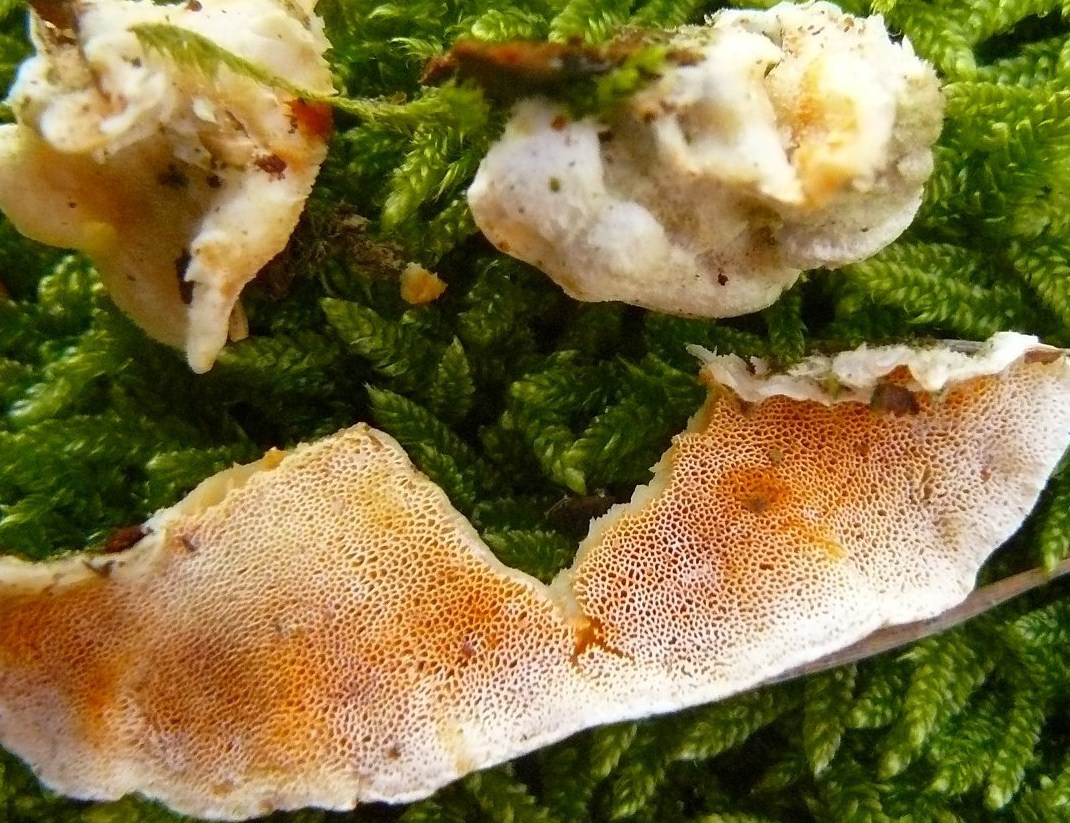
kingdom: Fungi
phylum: Basidiomycota
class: Agaricomycetes
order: Polyporales
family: Incrustoporiaceae
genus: Skeletocutis
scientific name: Skeletocutis amorpha
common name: orange krystalporesvamp
